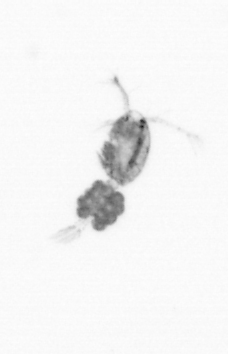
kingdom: Animalia
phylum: Arthropoda
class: Copepoda
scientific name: Copepoda
